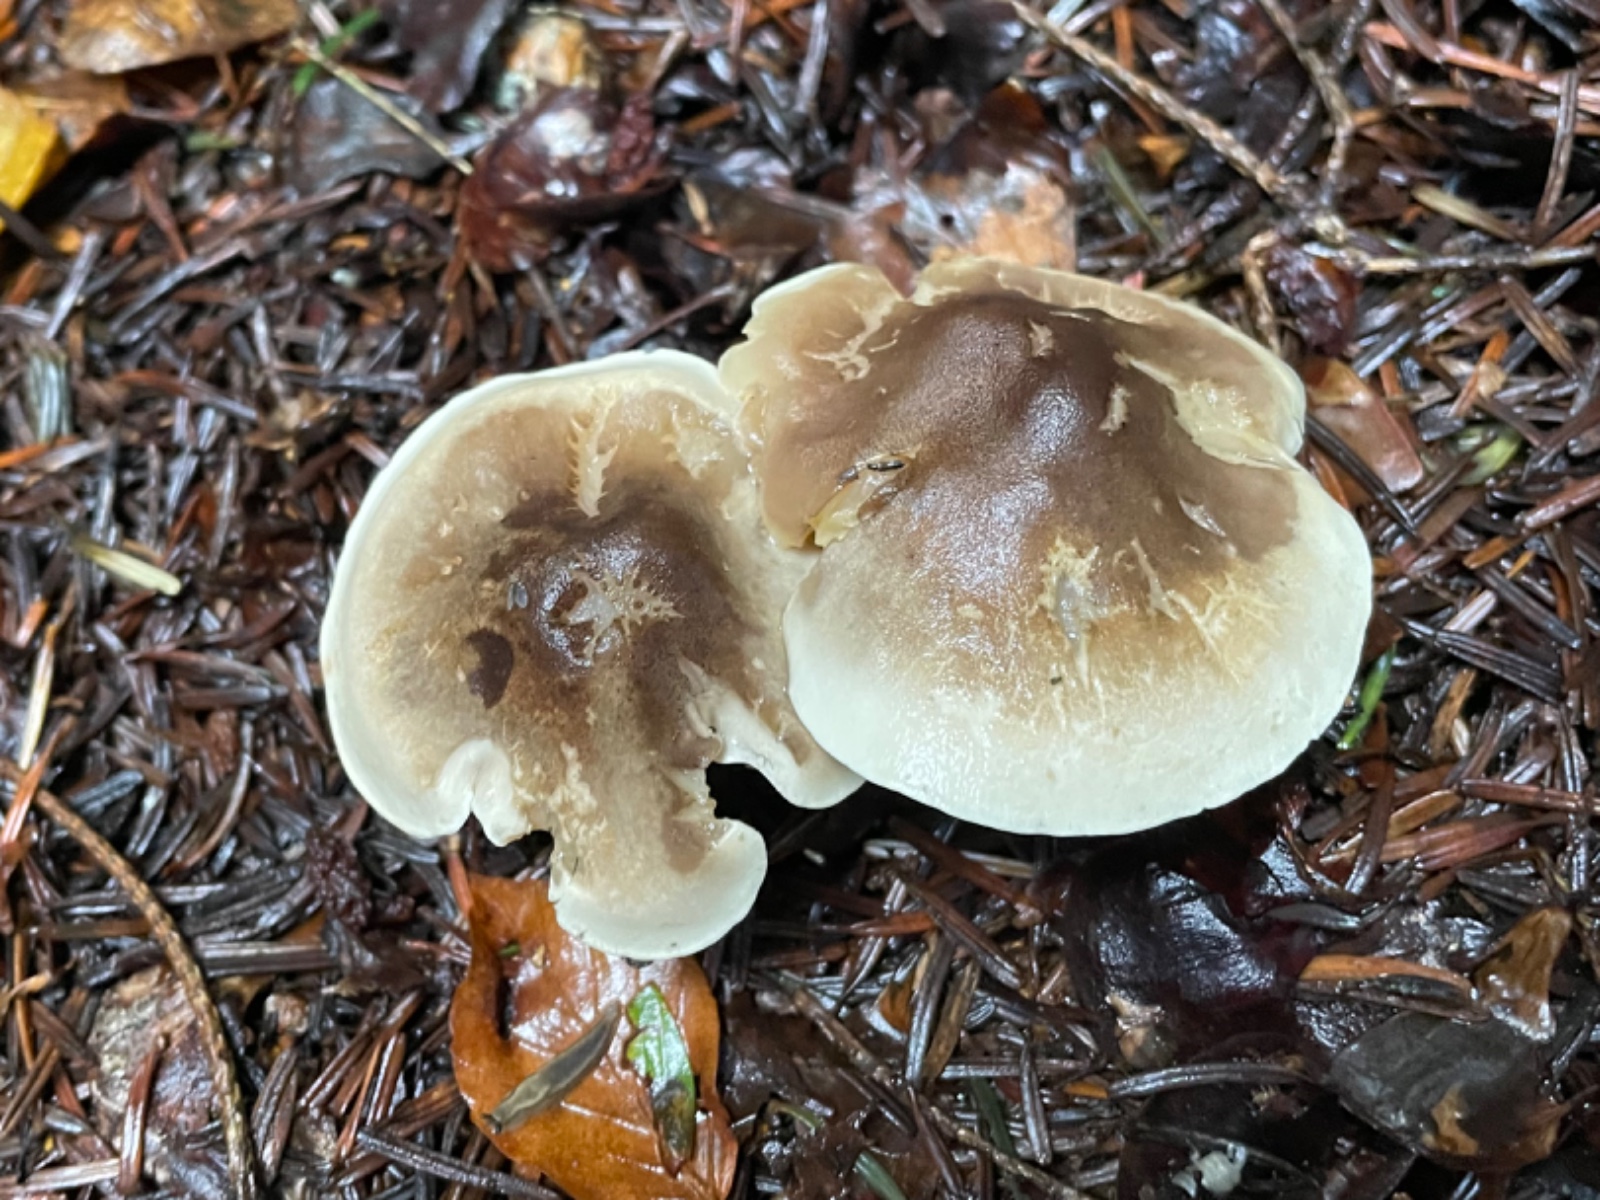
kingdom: Fungi
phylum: Basidiomycota
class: Agaricomycetes
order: Agaricales
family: Tricholomataceae
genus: Tricholoma
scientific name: Tricholoma saponaceum
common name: Soapy trich
